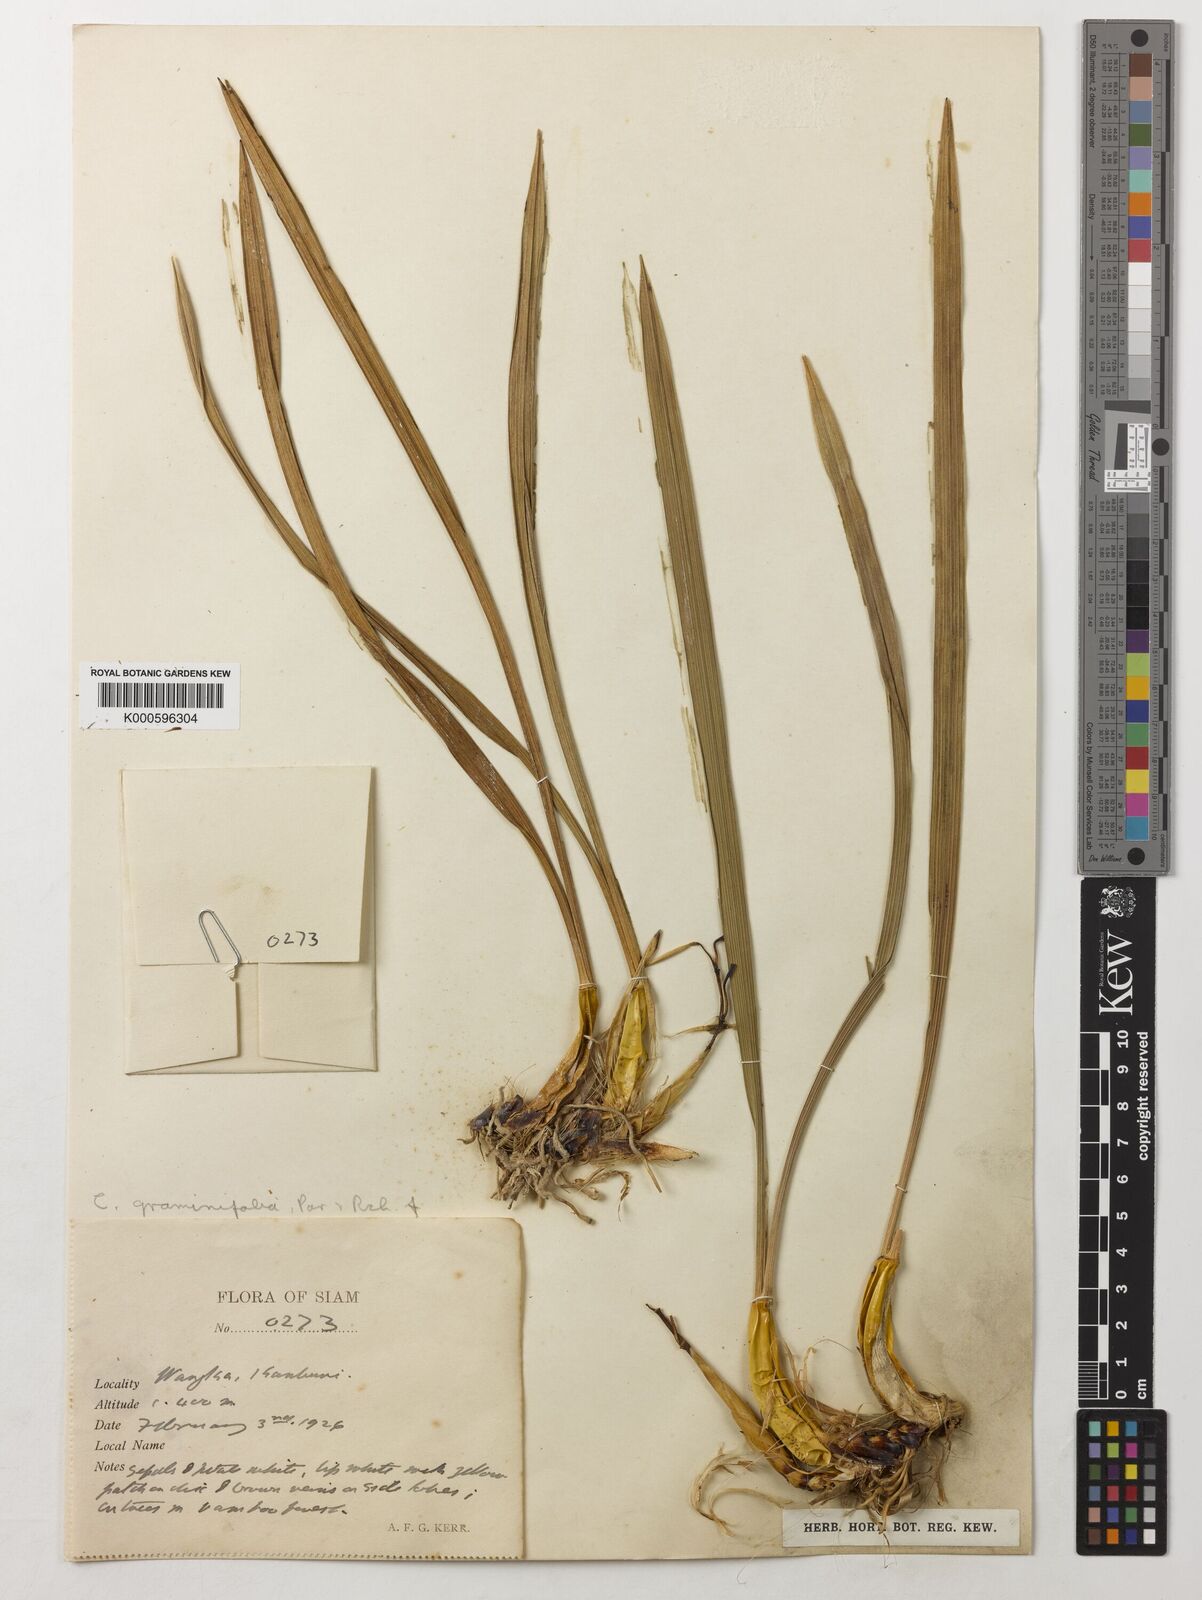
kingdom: Plantae
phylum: Tracheophyta
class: Liliopsida
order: Asparagales
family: Orchidaceae
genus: Coelogyne
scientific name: Coelogyne viscosa
